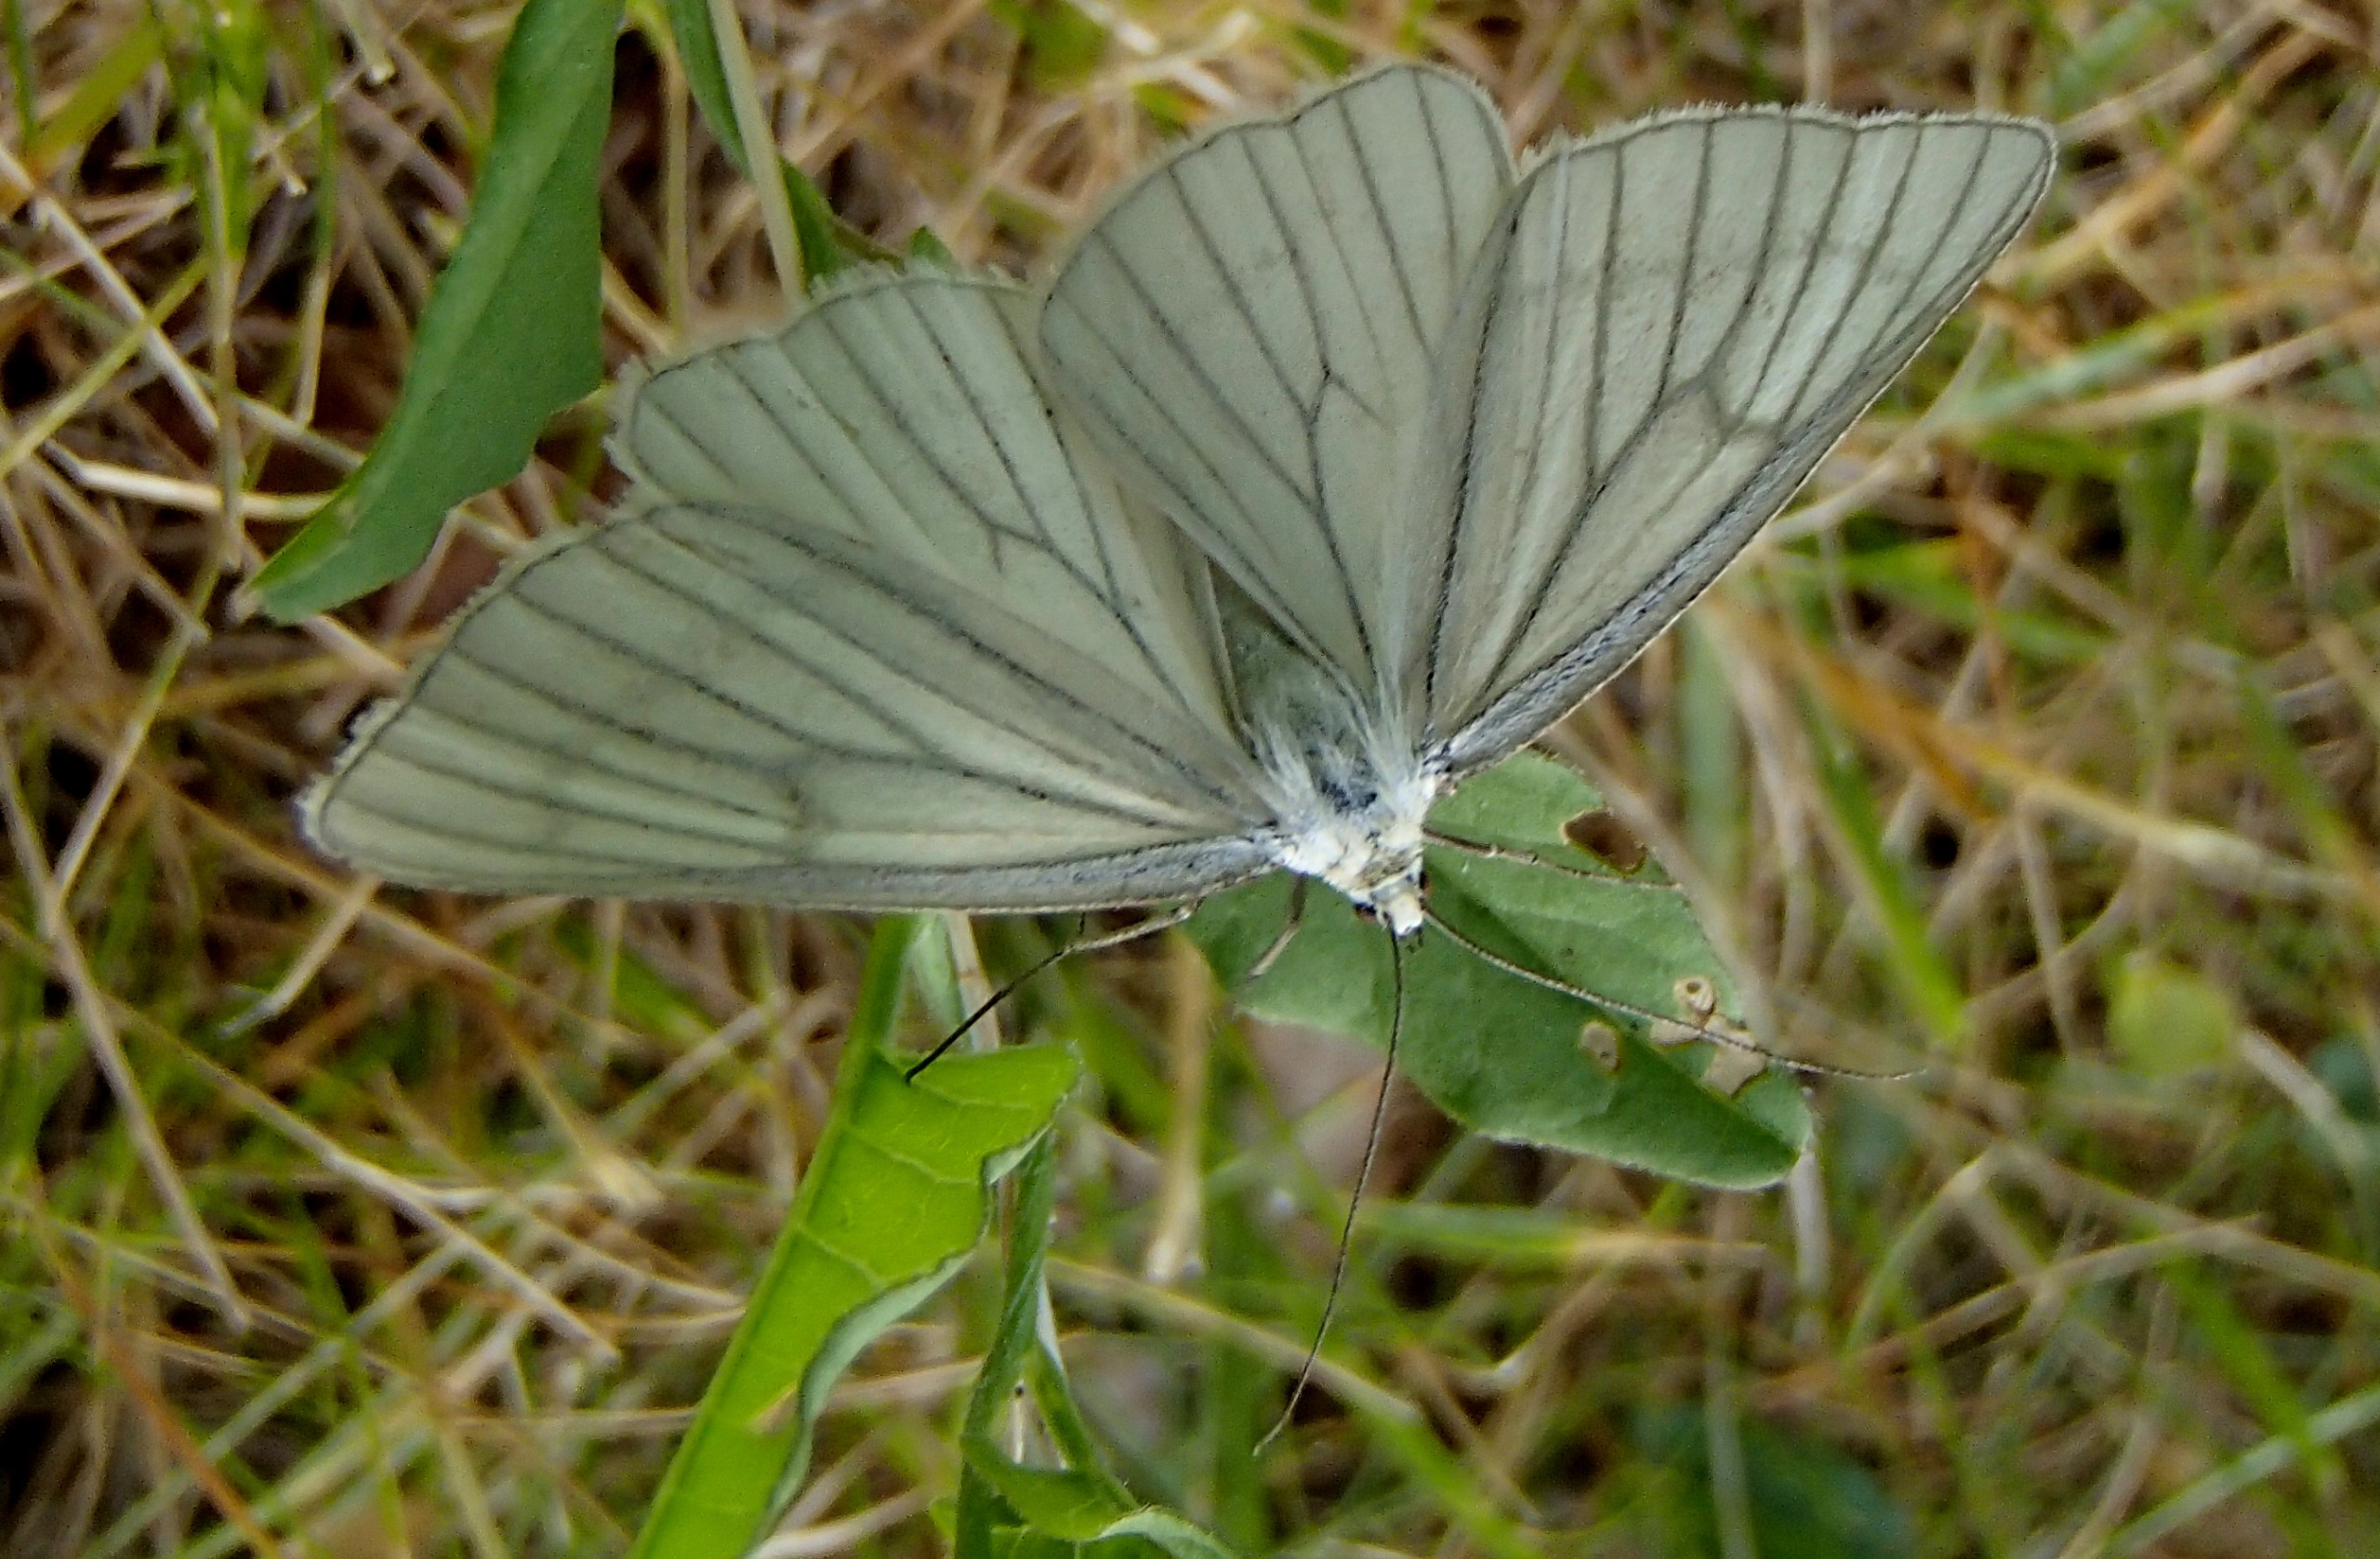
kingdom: Animalia
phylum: Arthropoda
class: Insecta
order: Lepidoptera
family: Geometridae
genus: Siona
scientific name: Siona lineata
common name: Hvidvingemåler
